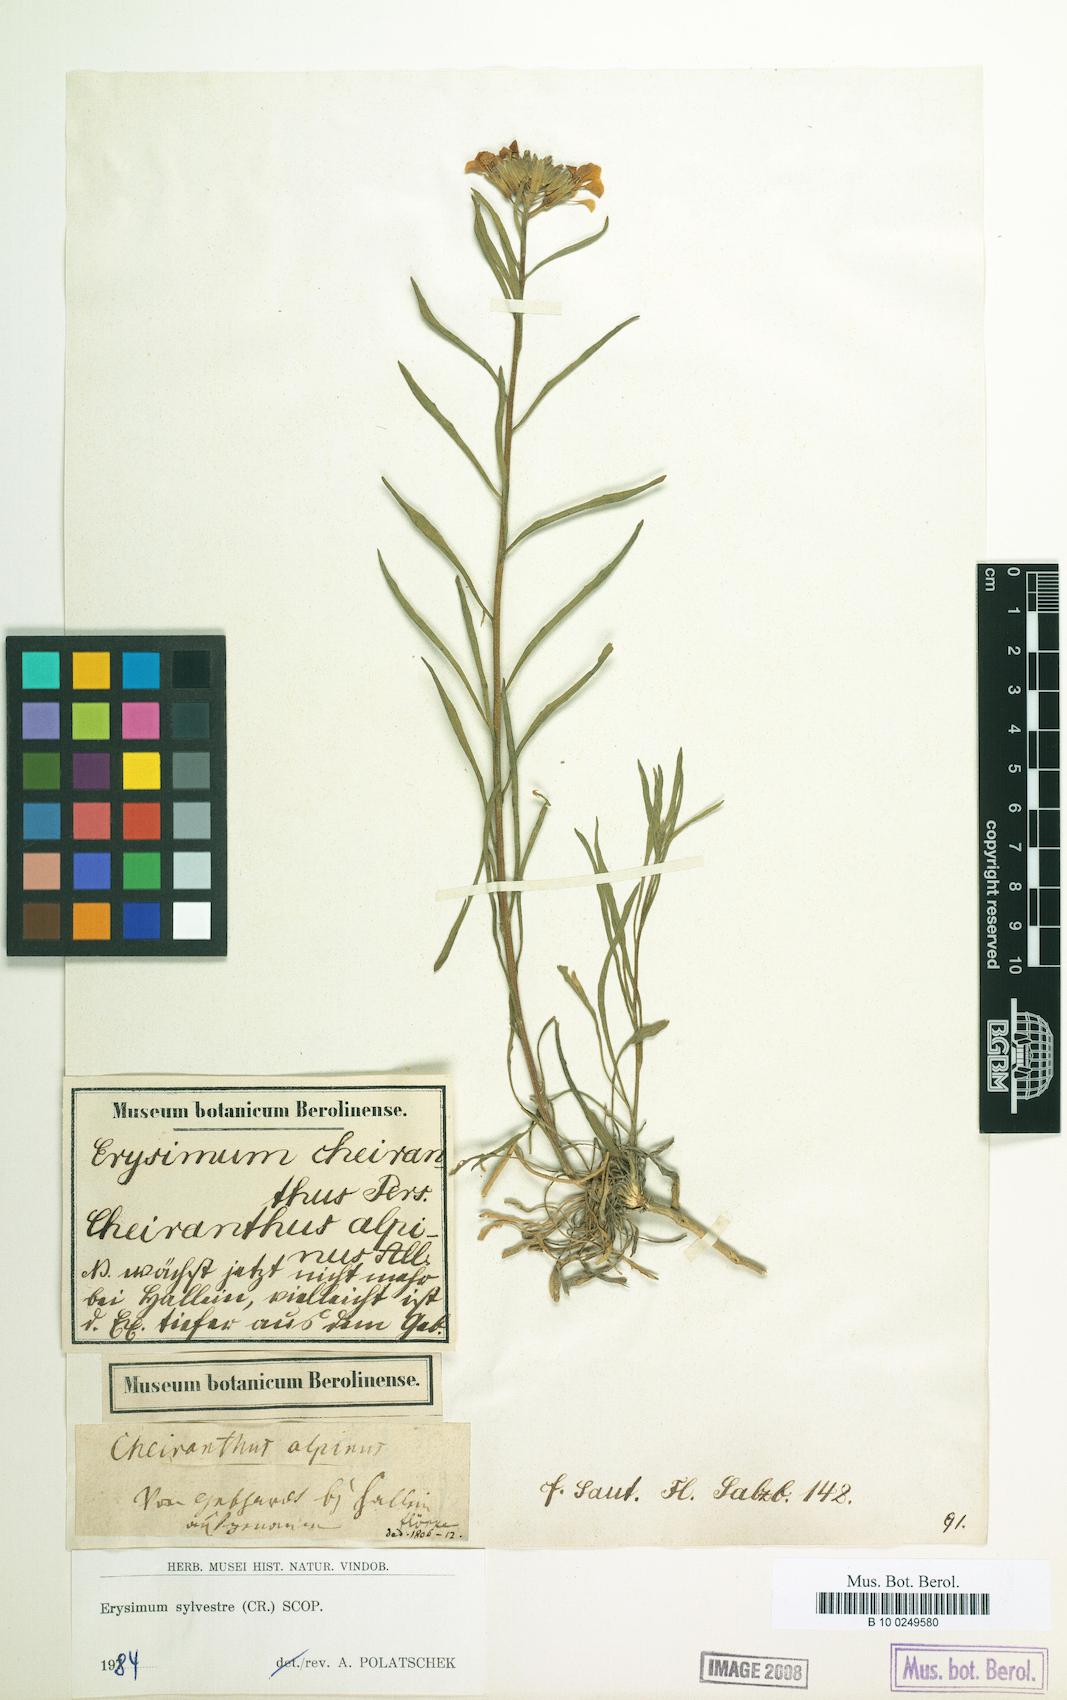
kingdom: Plantae
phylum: Tracheophyta
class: Magnoliopsida
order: Brassicales
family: Brassicaceae
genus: Erysimum
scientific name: Erysimum sylvestre
